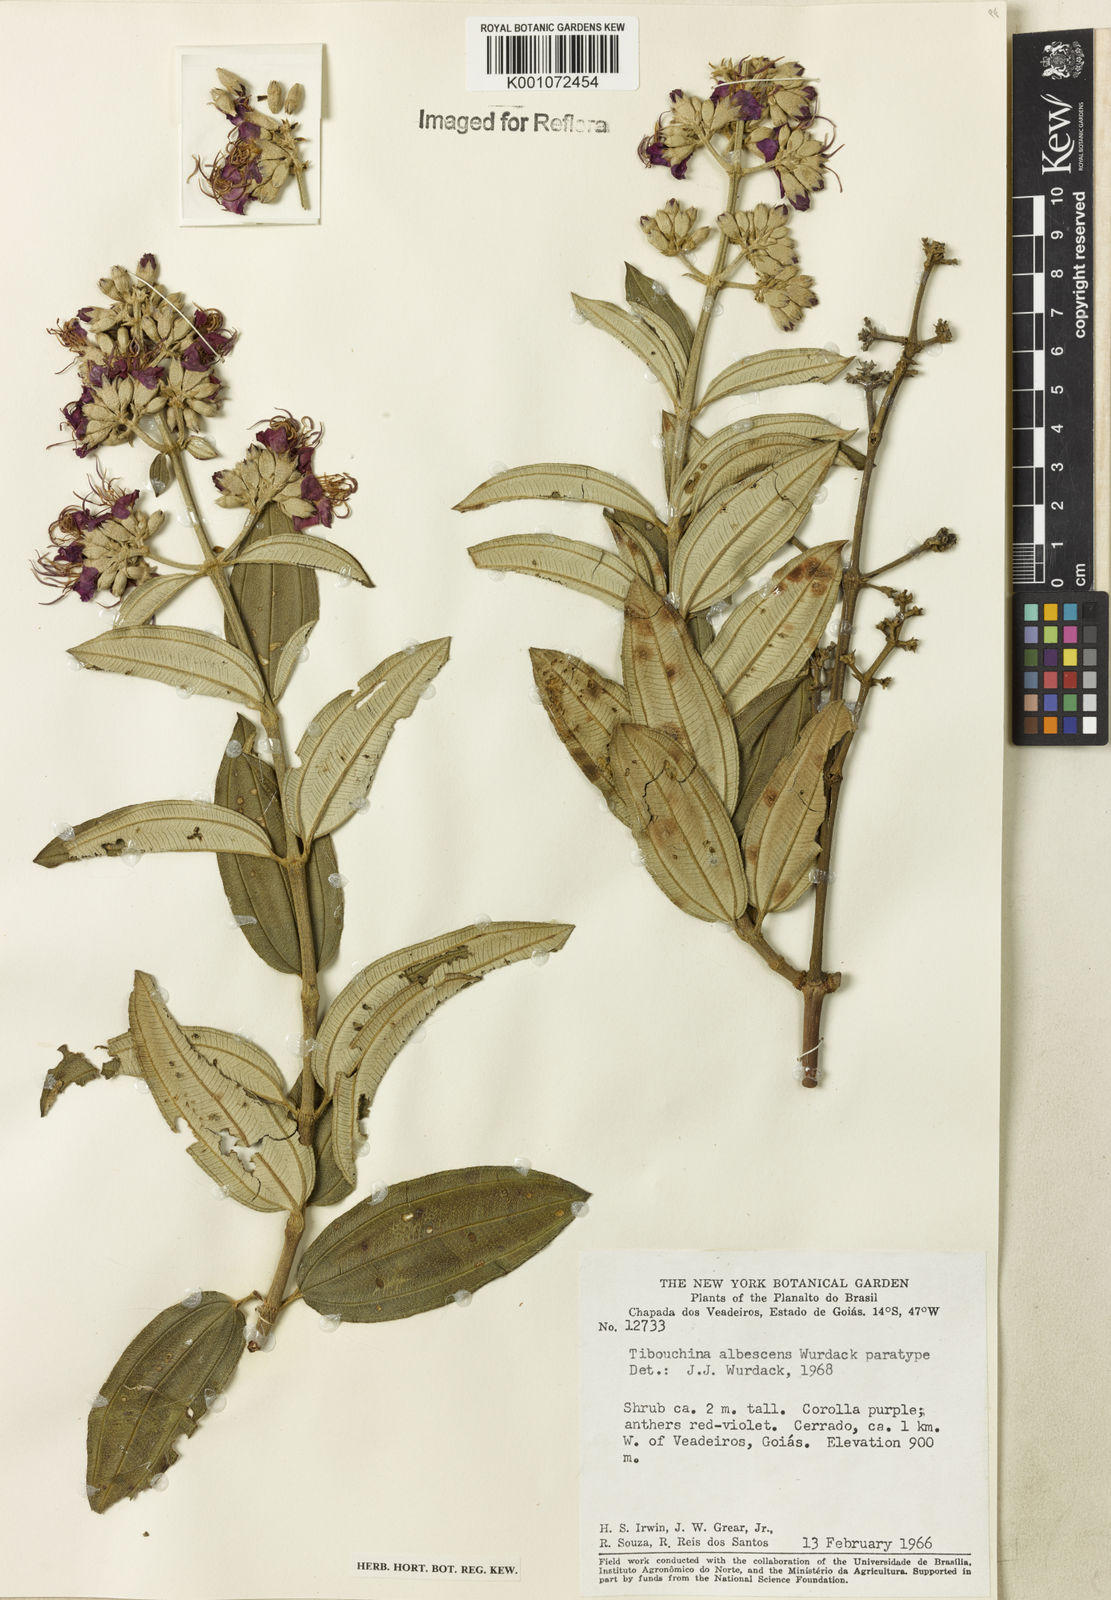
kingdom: Plantae
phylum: Tracheophyta
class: Magnoliopsida
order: Myrtales
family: Melastomataceae
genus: Tibouchina
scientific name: Tibouchina
